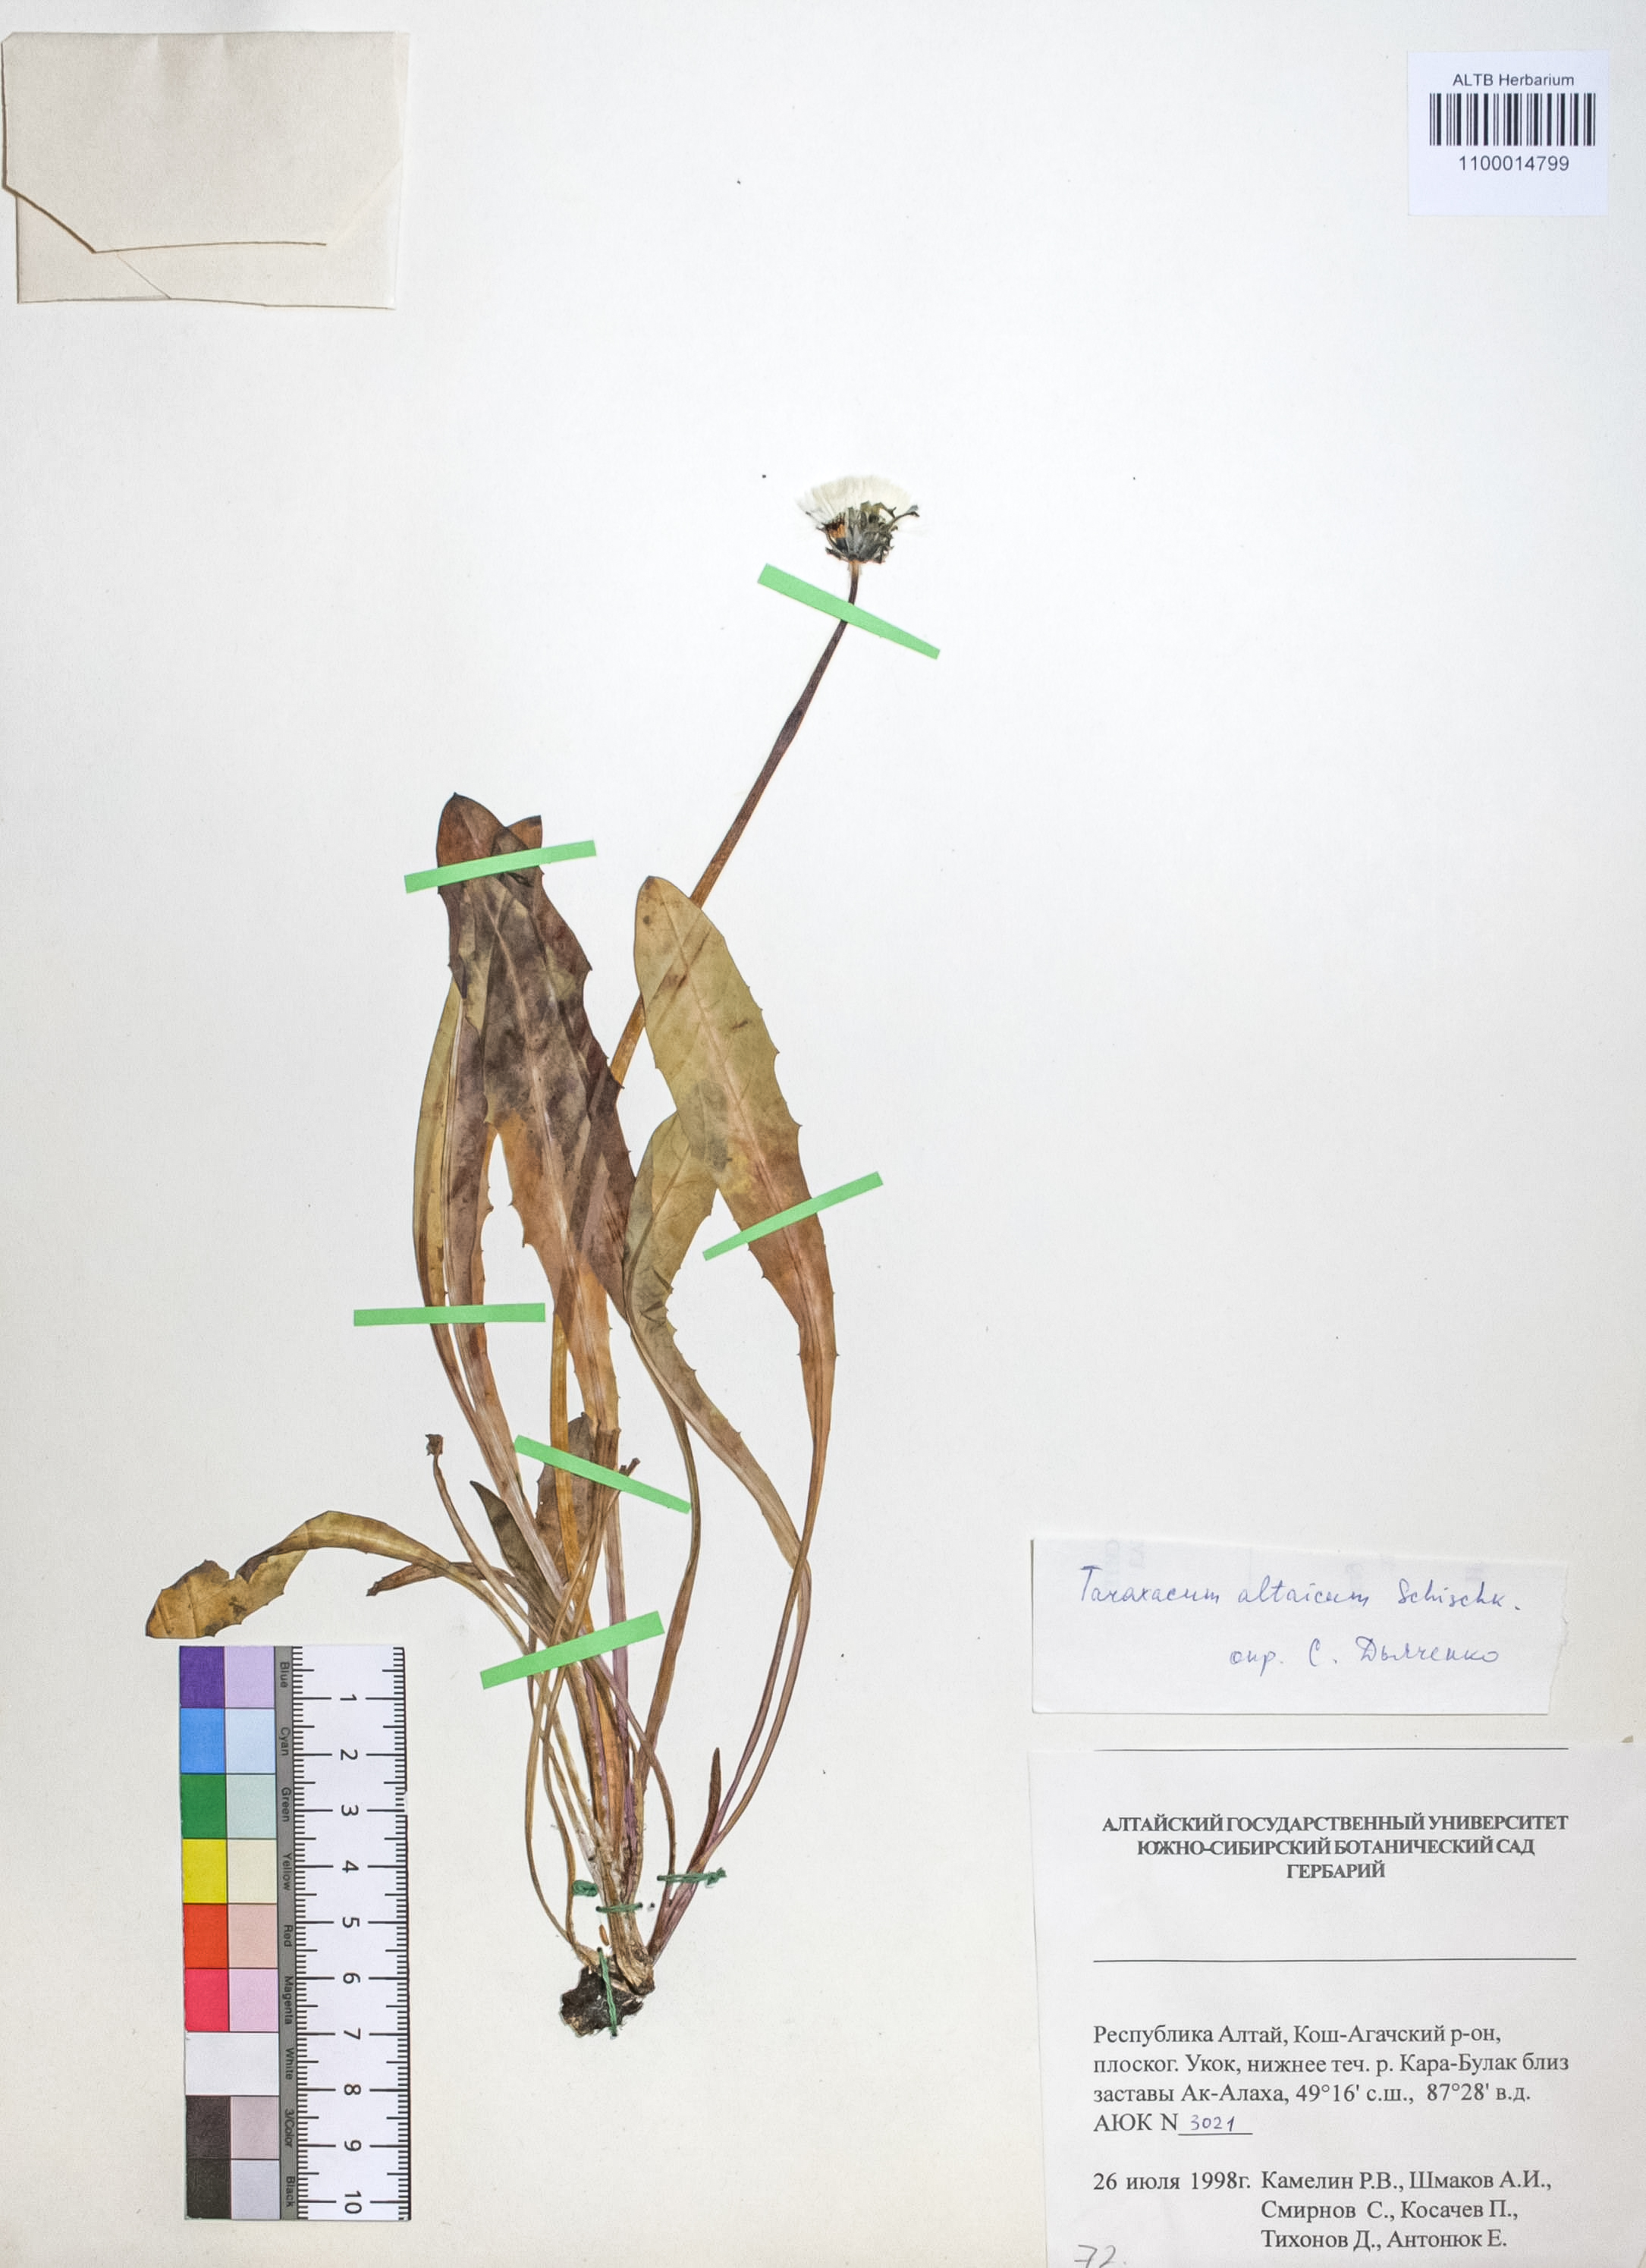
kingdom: Plantae
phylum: Tracheophyta
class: Magnoliopsida
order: Asterales
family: Asteraceae
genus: Taraxacum
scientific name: Taraxacum ceratophorum
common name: Horn-bearing dandelion
